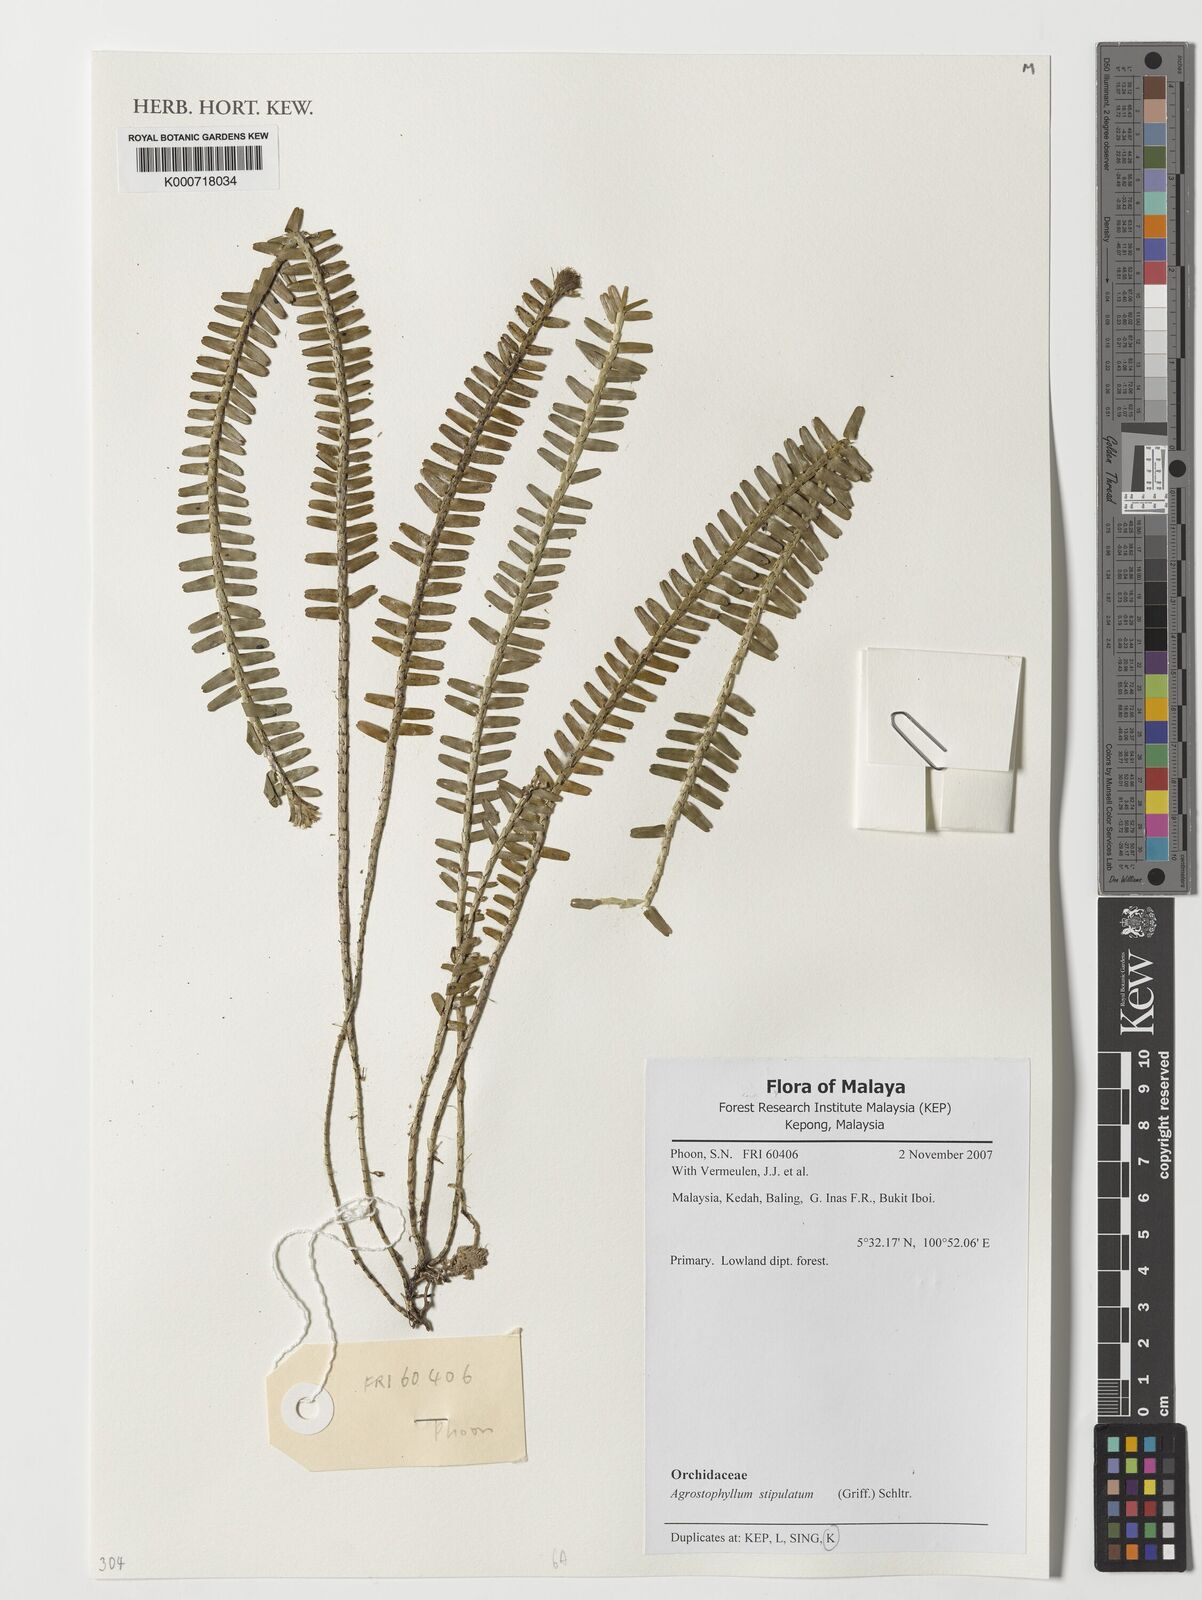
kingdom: Plantae
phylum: Tracheophyta
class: Liliopsida
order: Asparagales
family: Orchidaceae
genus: Agrostophyllum
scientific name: Agrostophyllum stipulatum
